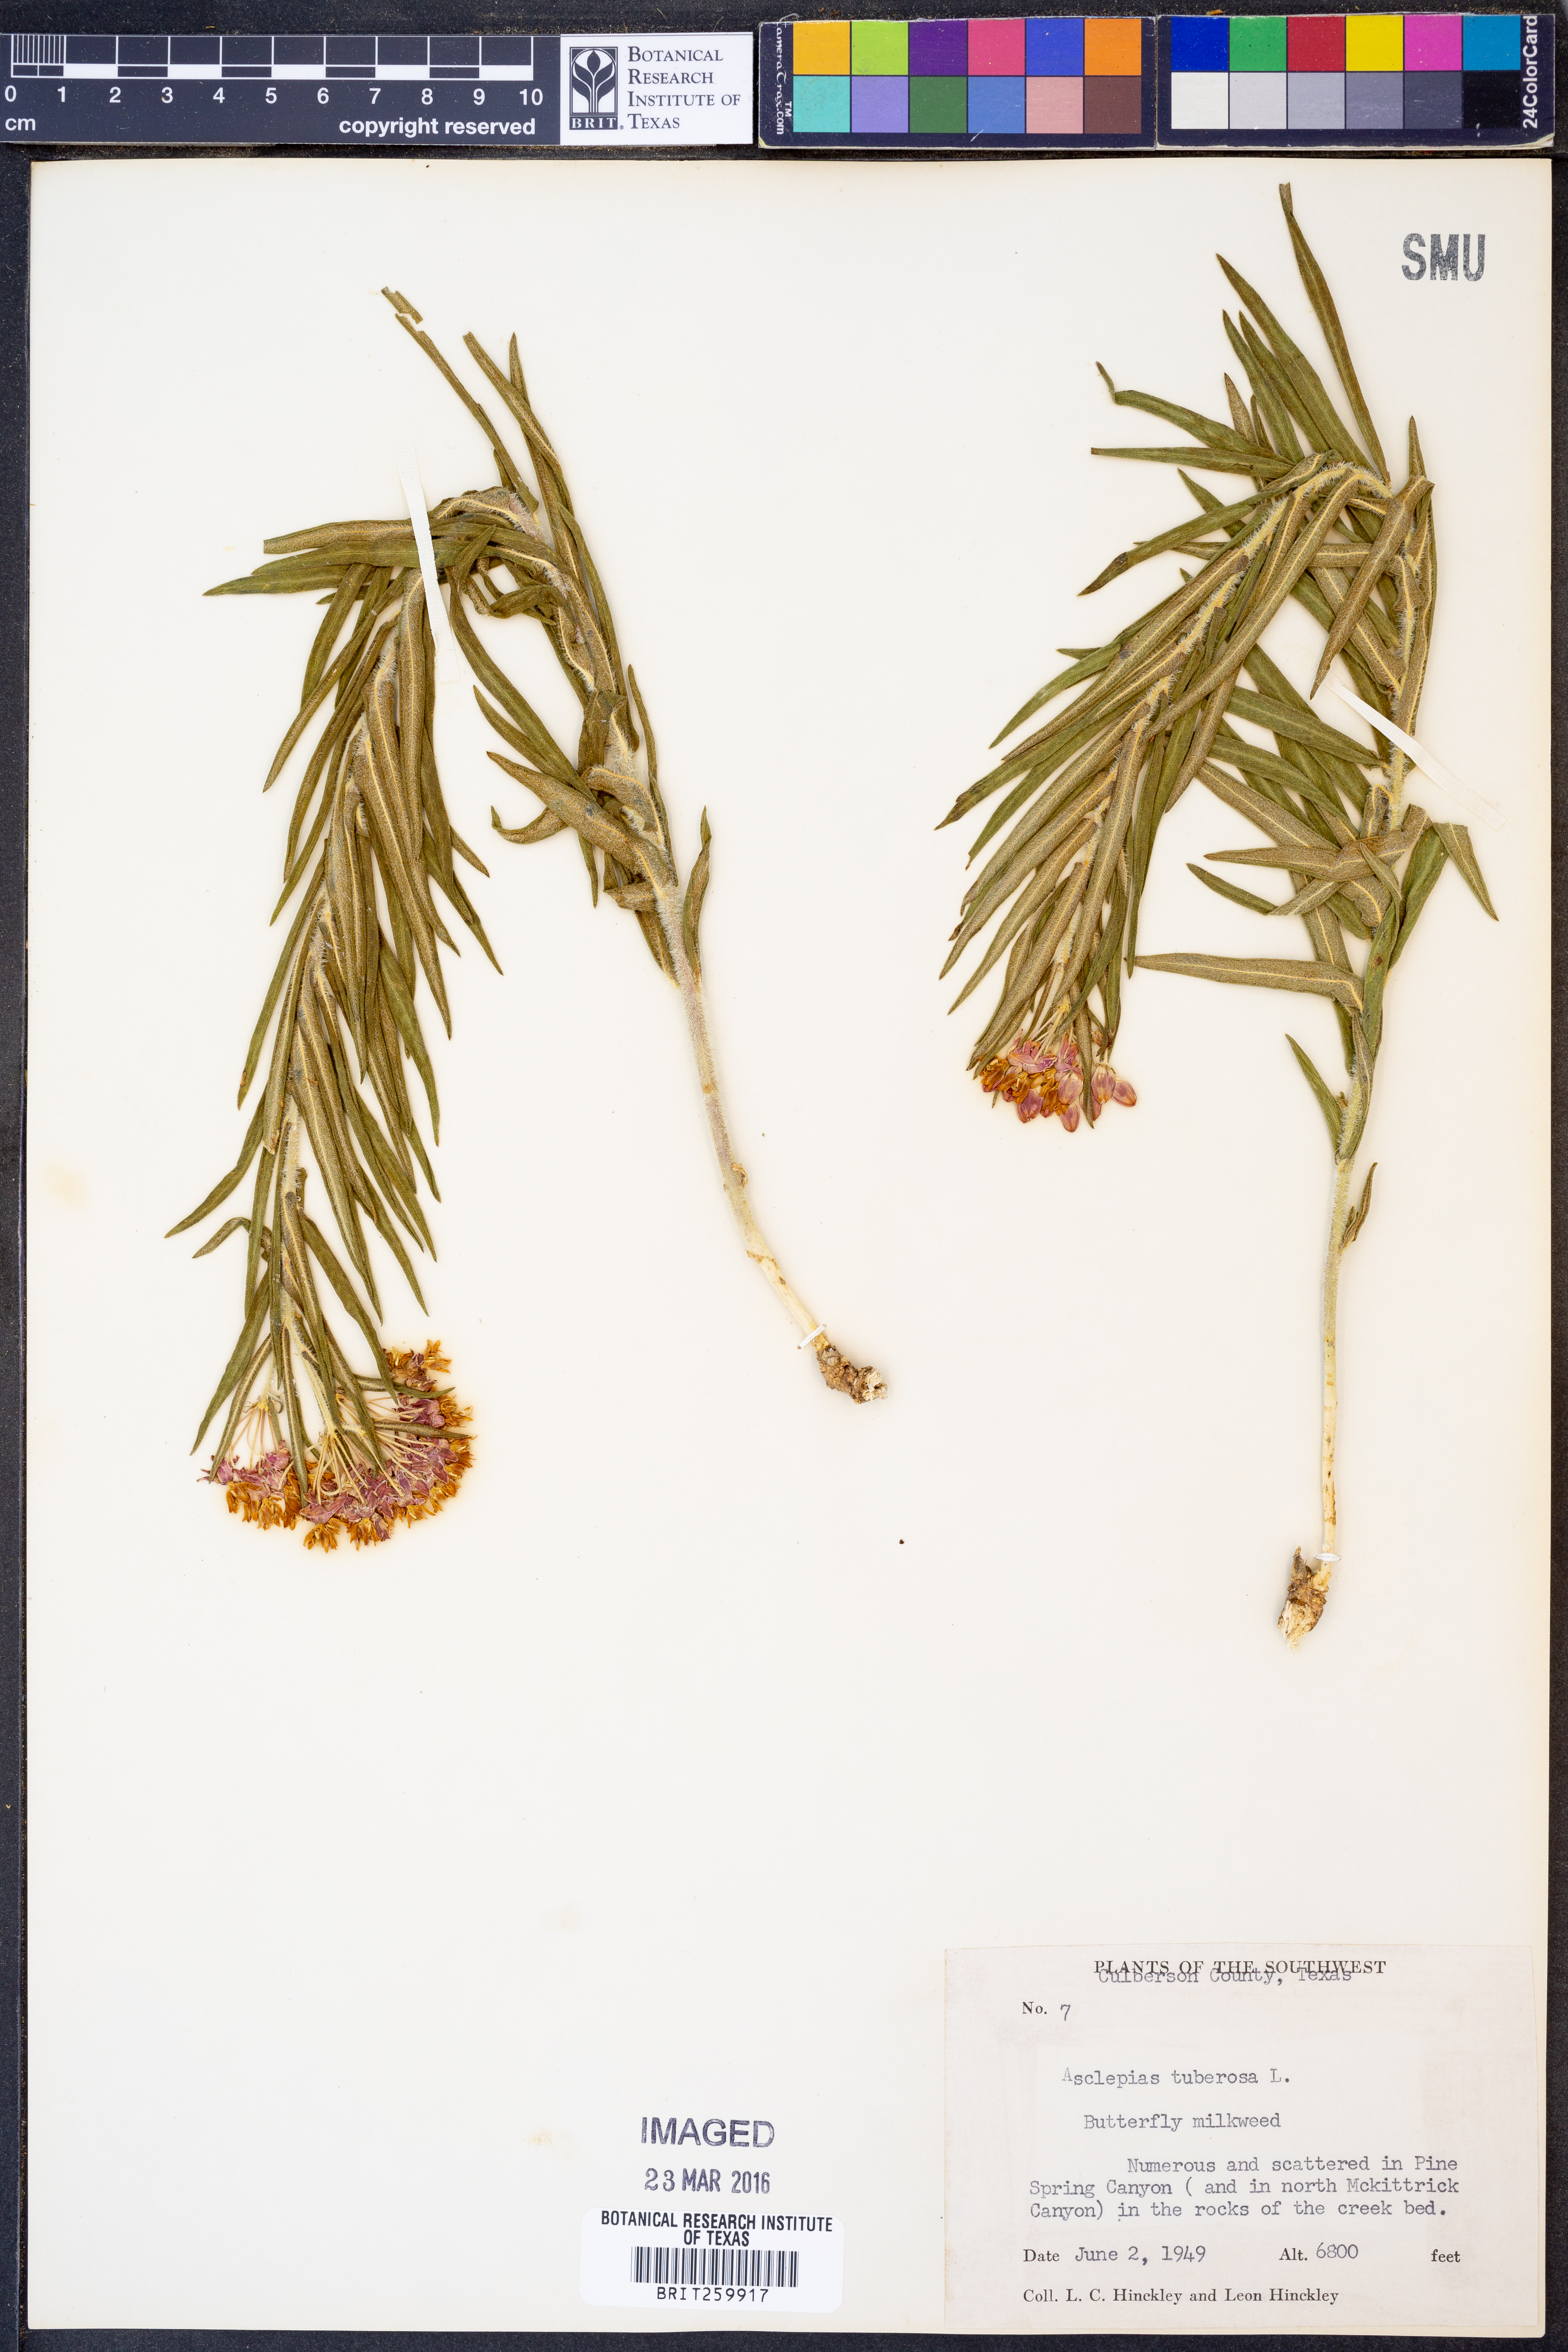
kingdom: Plantae
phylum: Tracheophyta
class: Magnoliopsida
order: Gentianales
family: Apocynaceae
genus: Asclepias
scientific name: Asclepias tuberosa
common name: Butterfly milkweed
